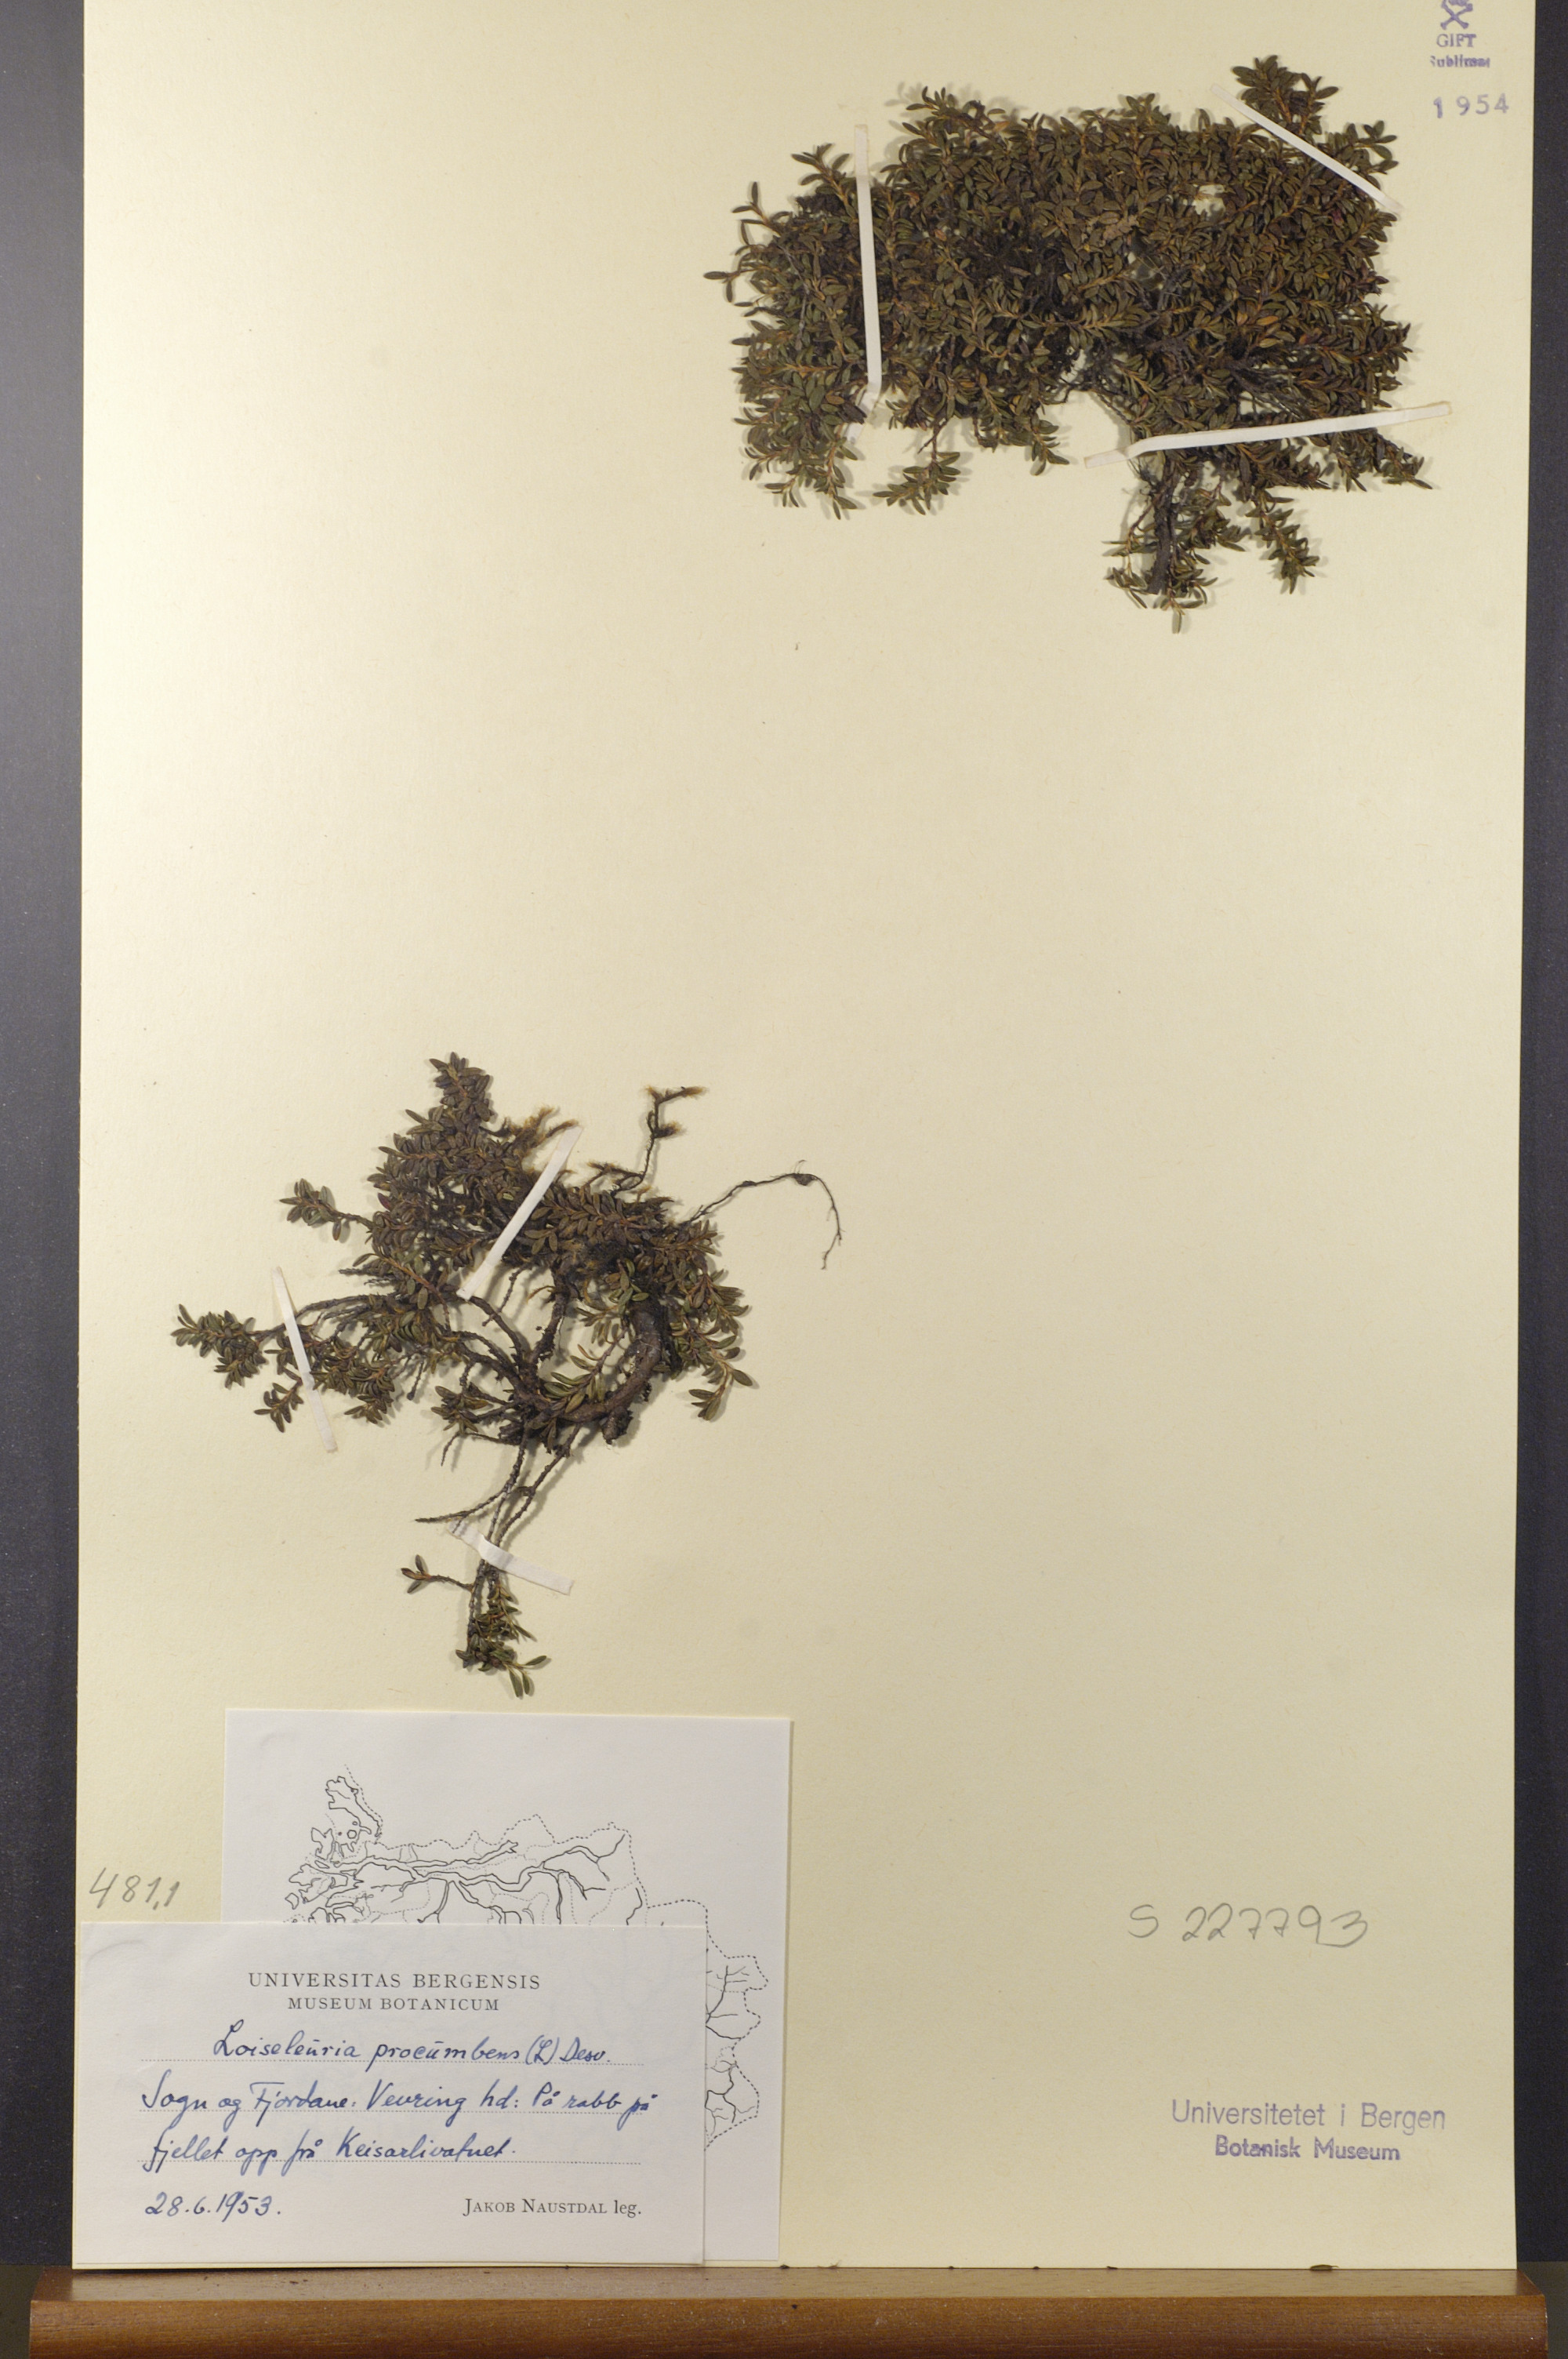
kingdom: Plantae
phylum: Tracheophyta
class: Magnoliopsida
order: Ericales
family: Ericaceae
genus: Kalmia
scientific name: Kalmia procumbens
